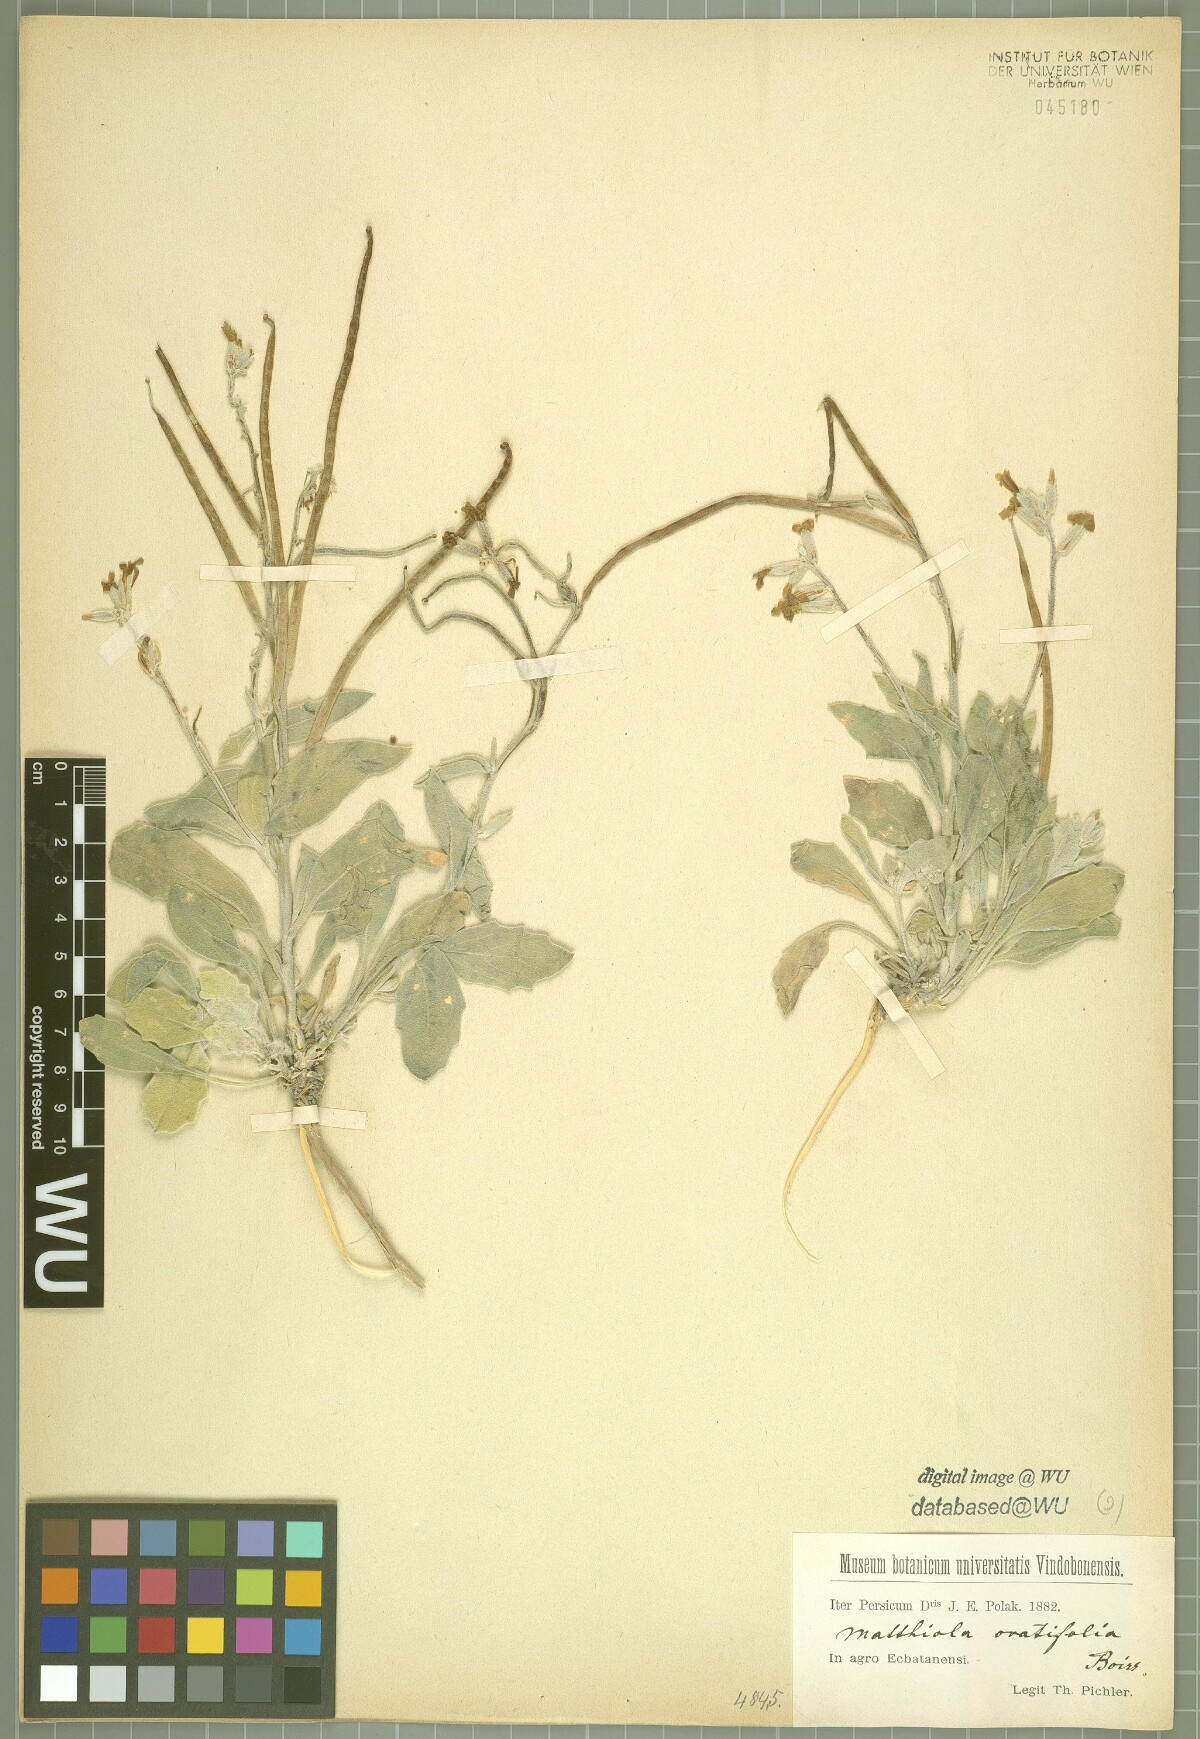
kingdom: Plantae
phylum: Tracheophyta
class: Magnoliopsida
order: Brassicales
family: Brassicaceae
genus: Matthiola
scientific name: Matthiola ovatifolia
